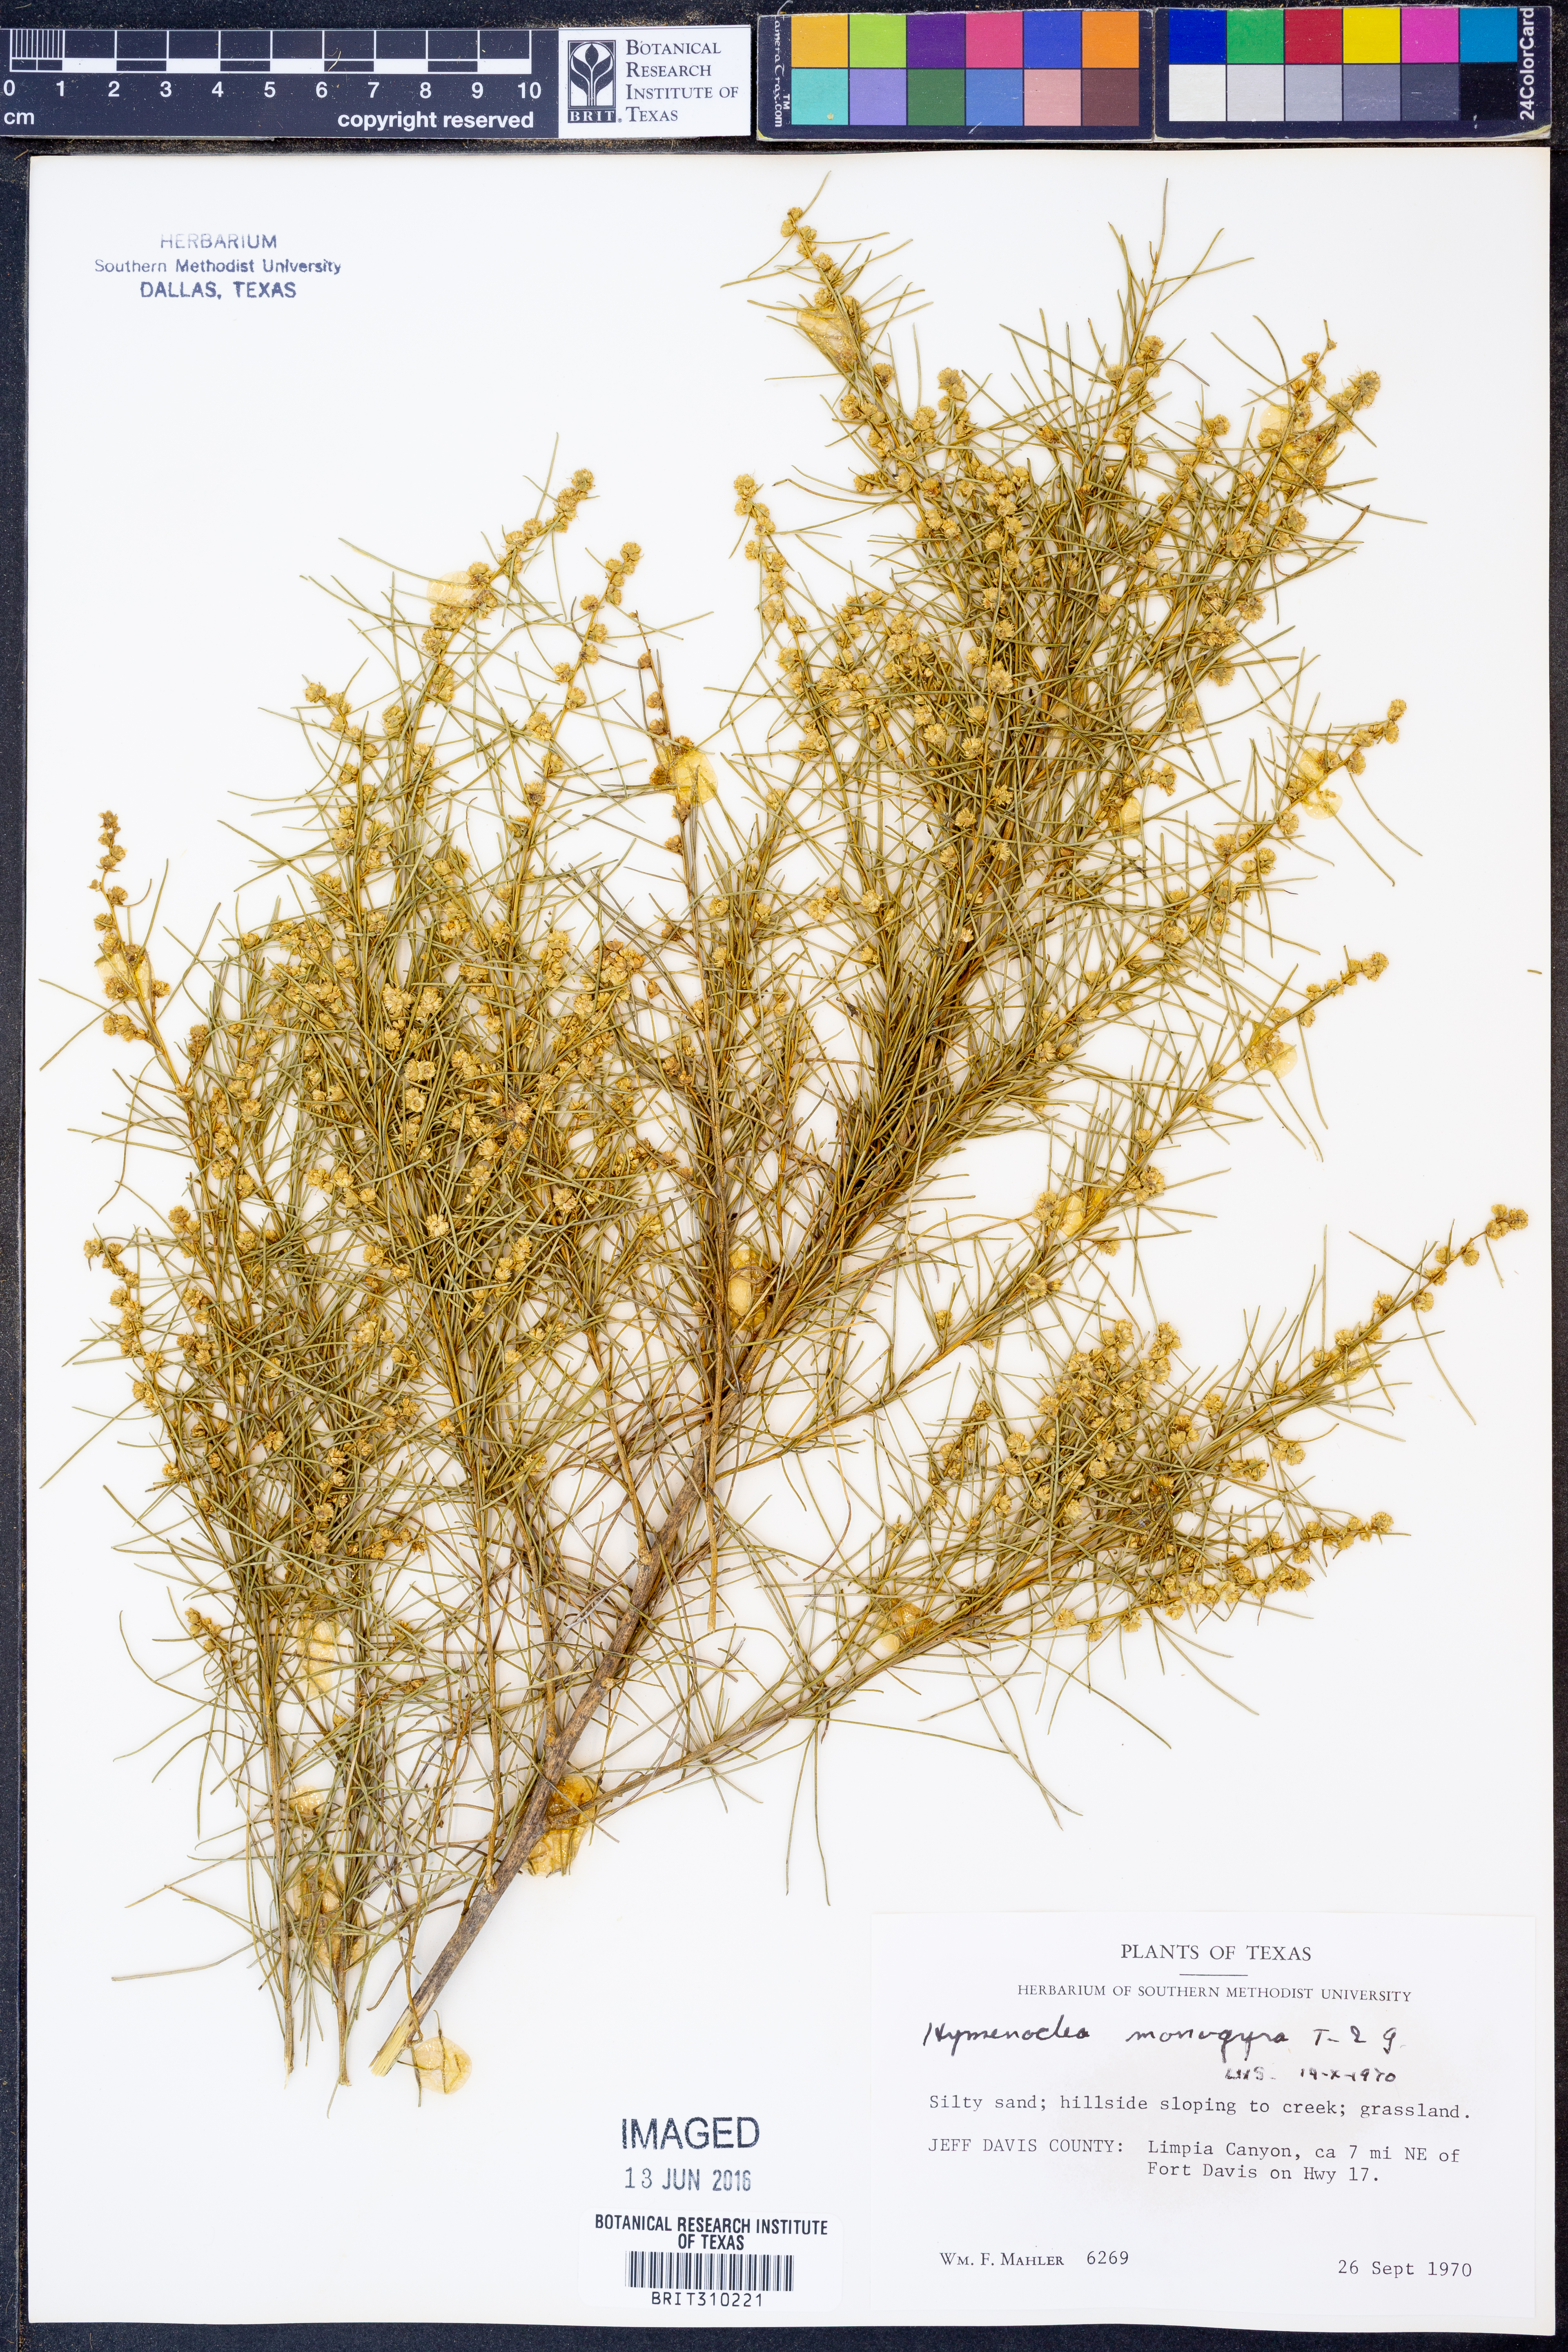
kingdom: Plantae
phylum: Tracheophyta
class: Magnoliopsida
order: Asterales
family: Asteraceae
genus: Ambrosia
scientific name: Ambrosia monogyra
